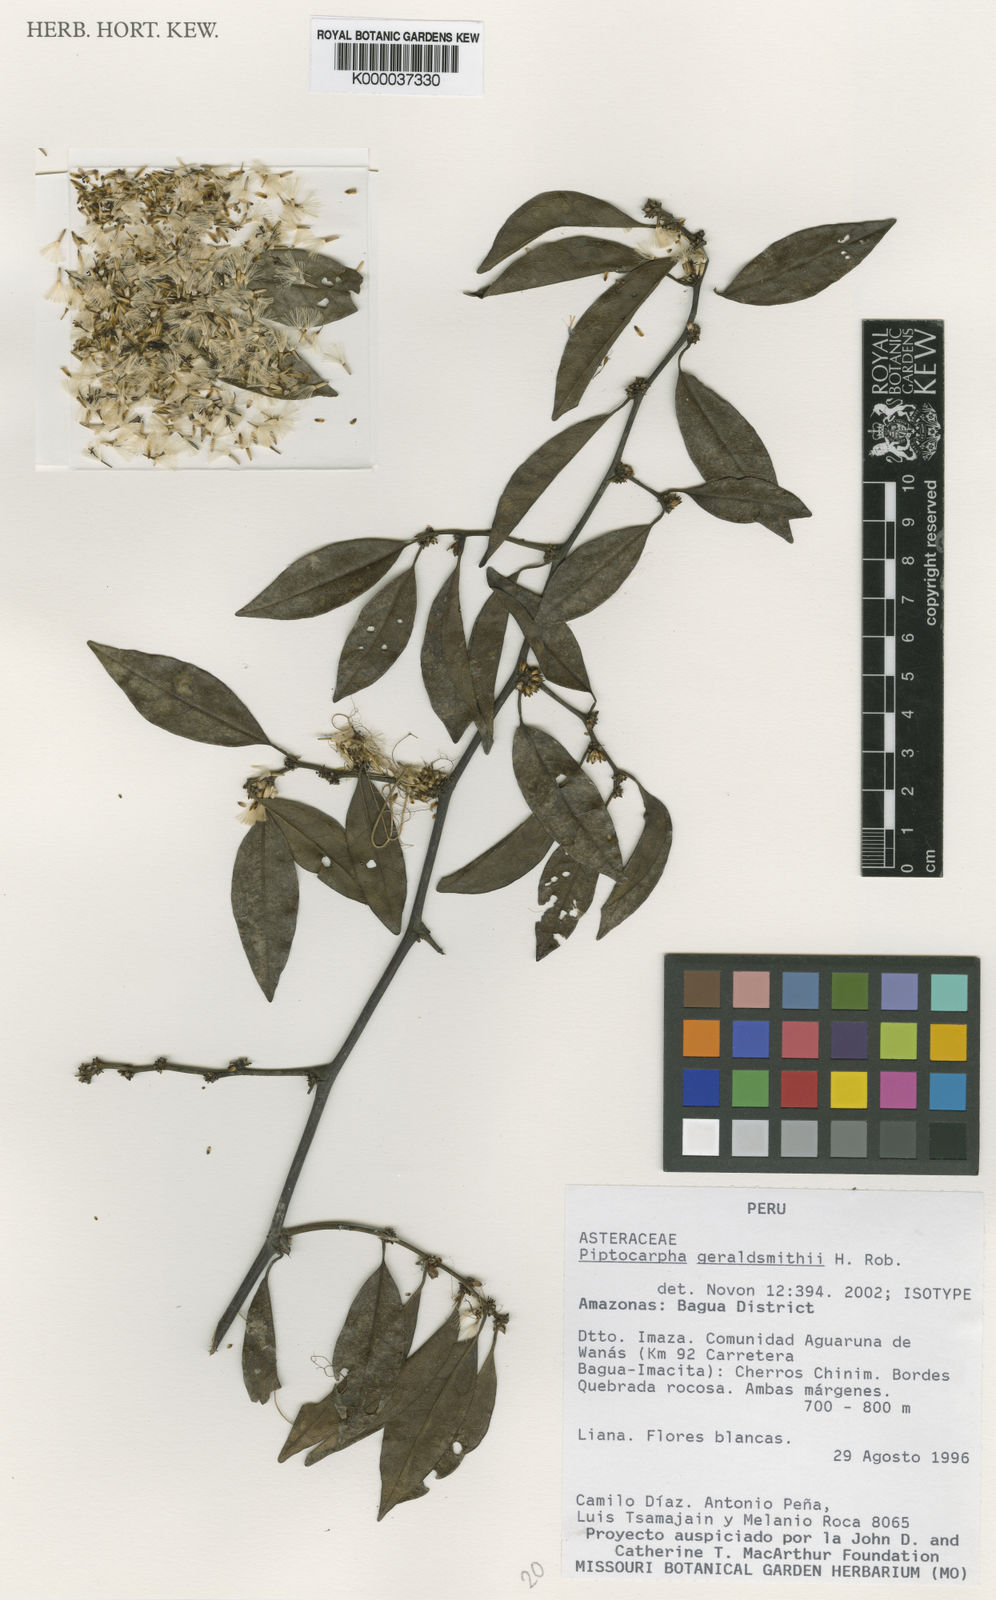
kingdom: Plantae
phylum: Tracheophyta
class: Magnoliopsida
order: Asterales
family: Asteraceae
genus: Piptocarpha
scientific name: Piptocarpha geraldsmithii
